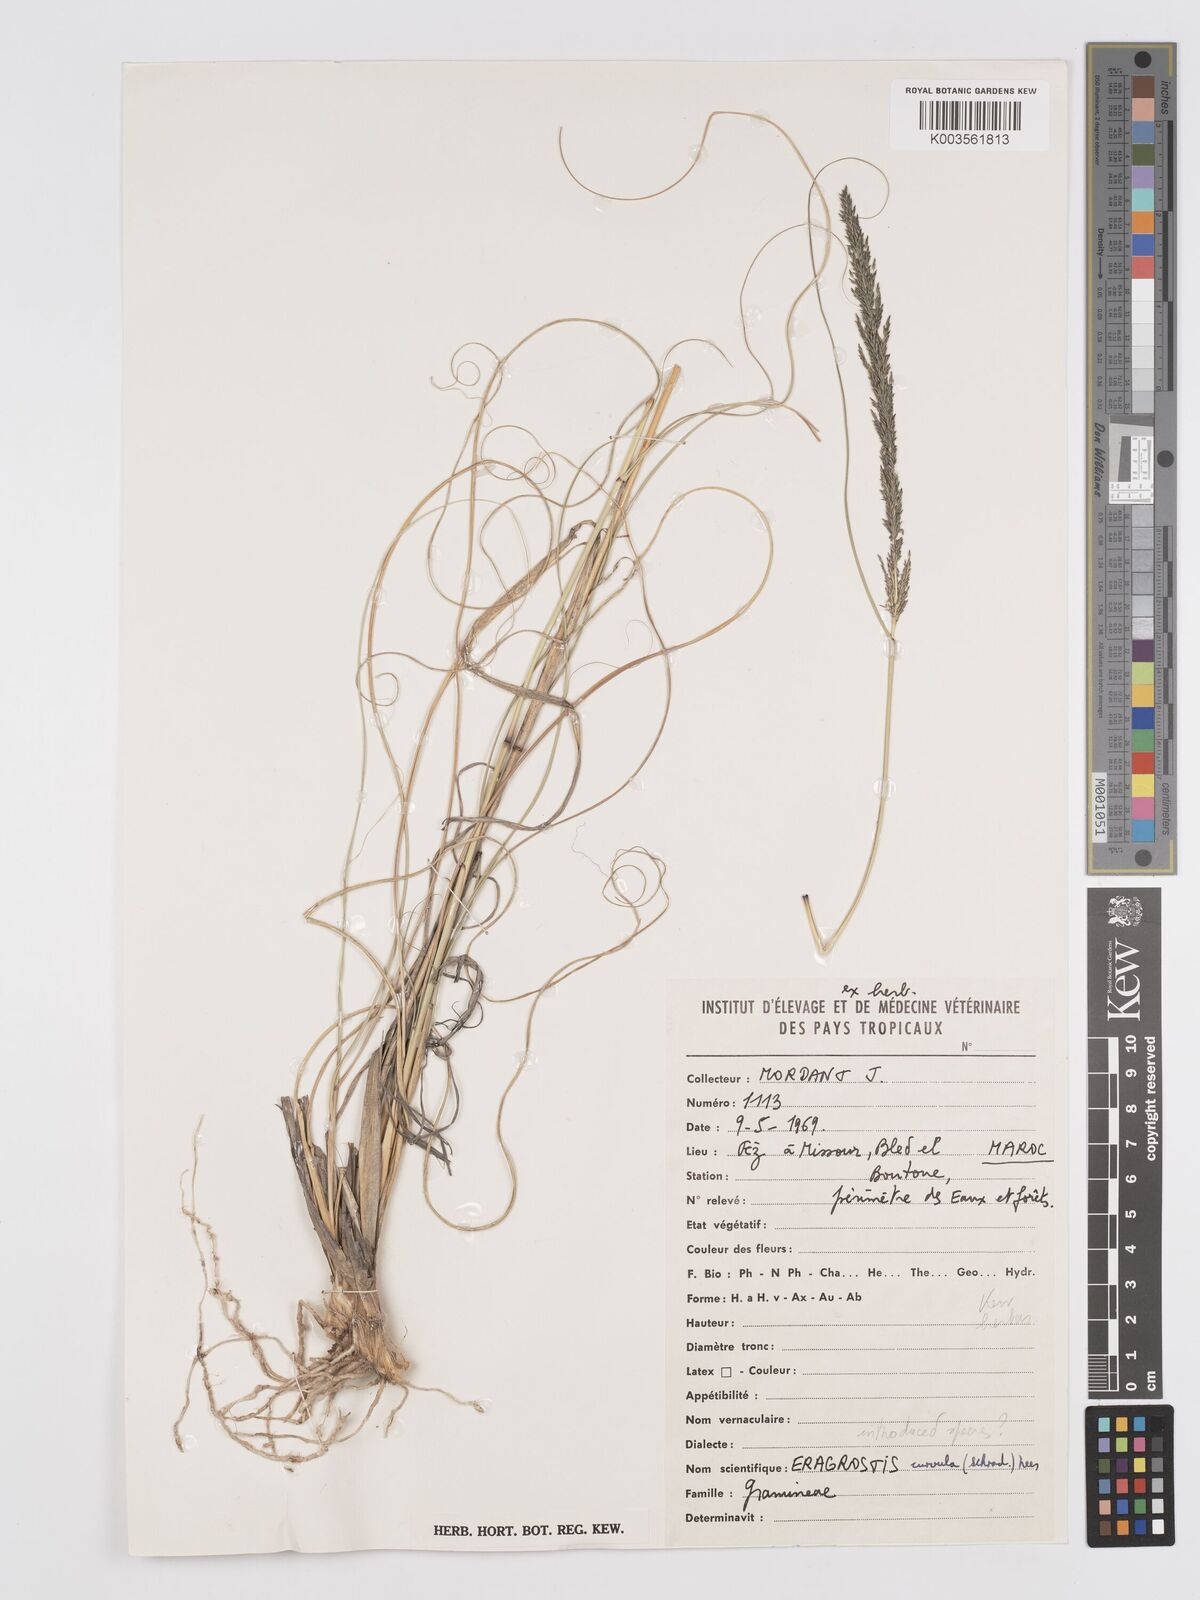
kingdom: Plantae
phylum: Tracheophyta
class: Liliopsida
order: Poales
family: Poaceae
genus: Eragrostis
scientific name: Eragrostis curvula
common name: African love-grass
